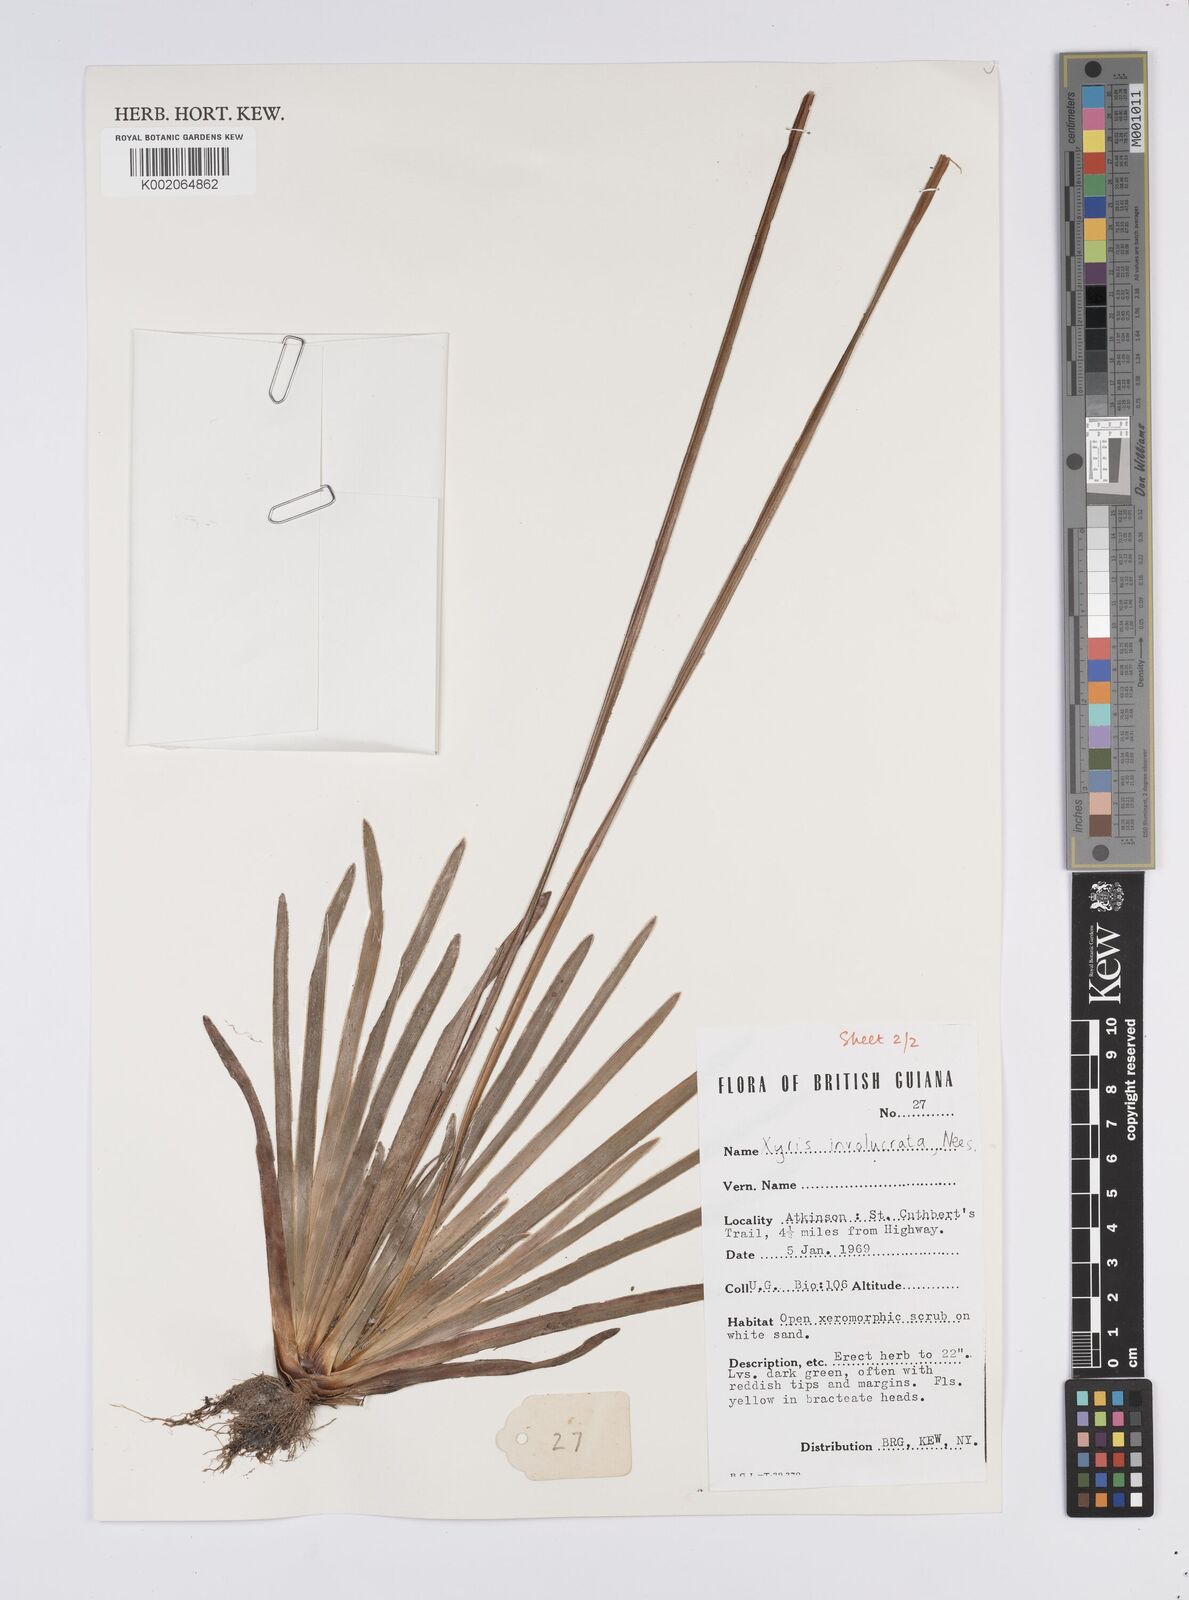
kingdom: Plantae
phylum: Tracheophyta
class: Liliopsida
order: Poales
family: Xyridaceae
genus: Xyris
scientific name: Xyris involucrata
